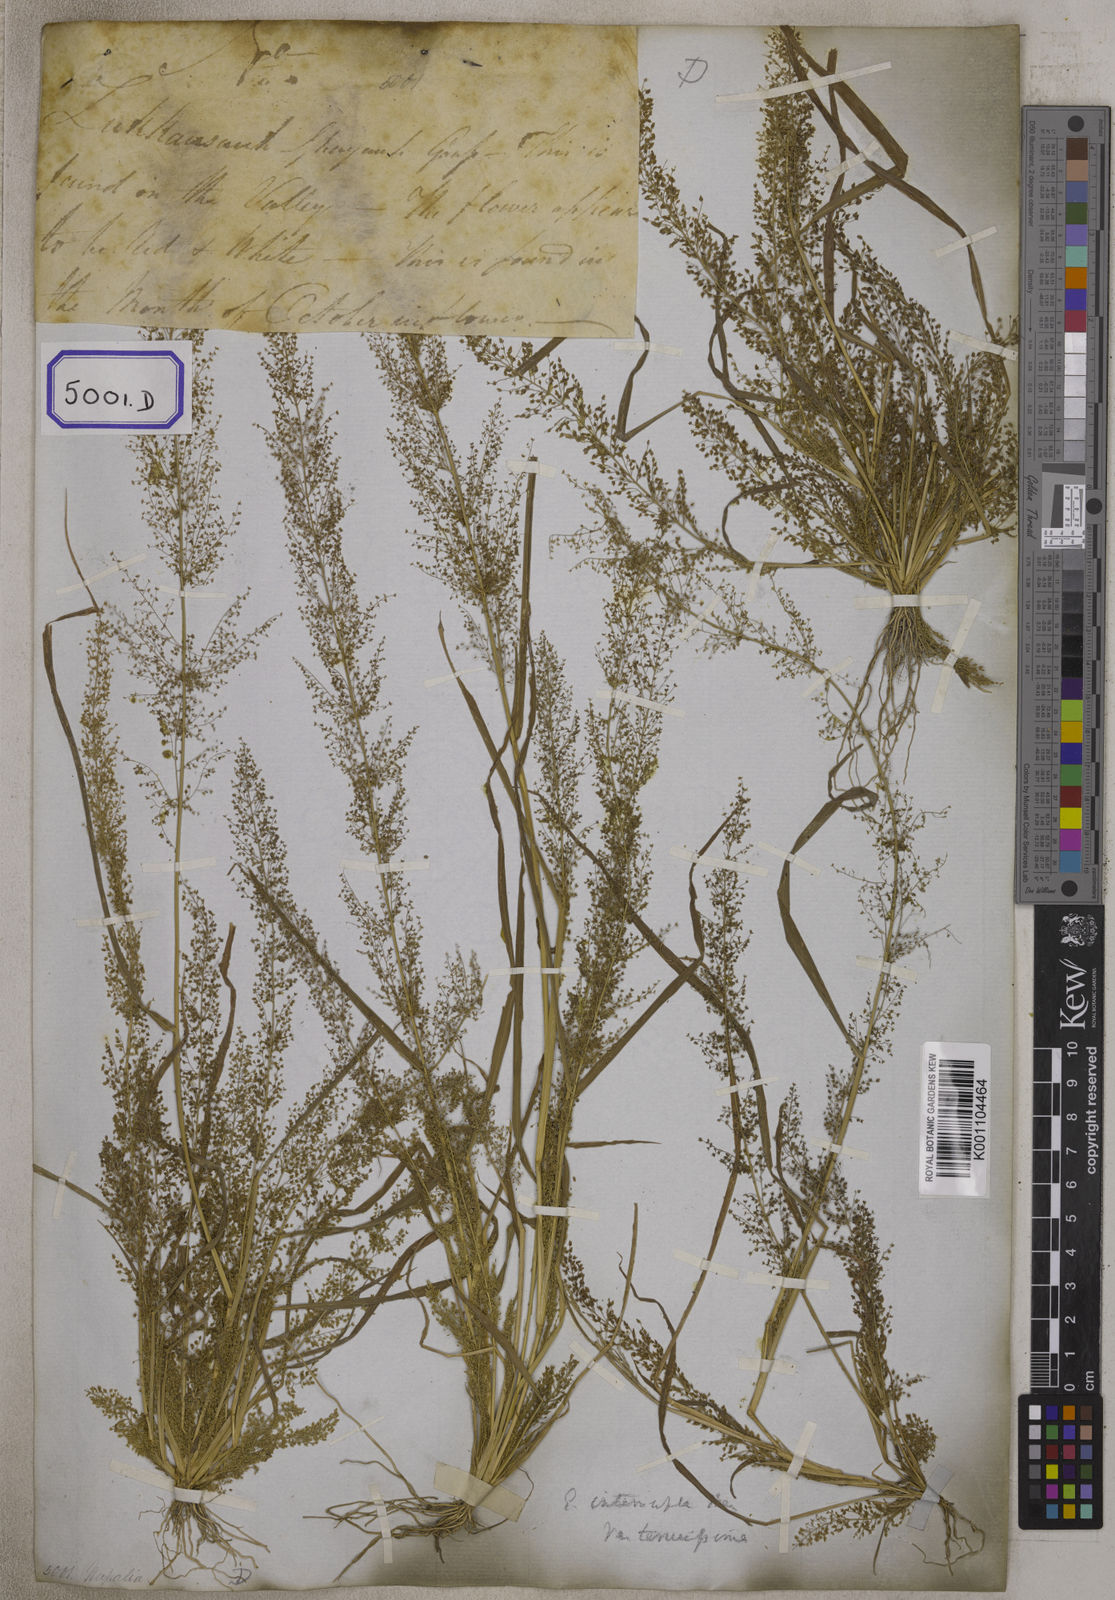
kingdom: Plantae
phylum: Tracheophyta
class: Liliopsida
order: Poales
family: Poaceae
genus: Eragrostis
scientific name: Eragrostis
